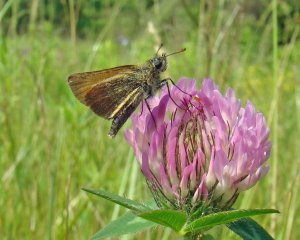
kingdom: Animalia
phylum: Arthropoda
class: Insecta
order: Lepidoptera
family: Hesperiidae
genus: Thymelicus
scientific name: Thymelicus lineola
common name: European Skipper
